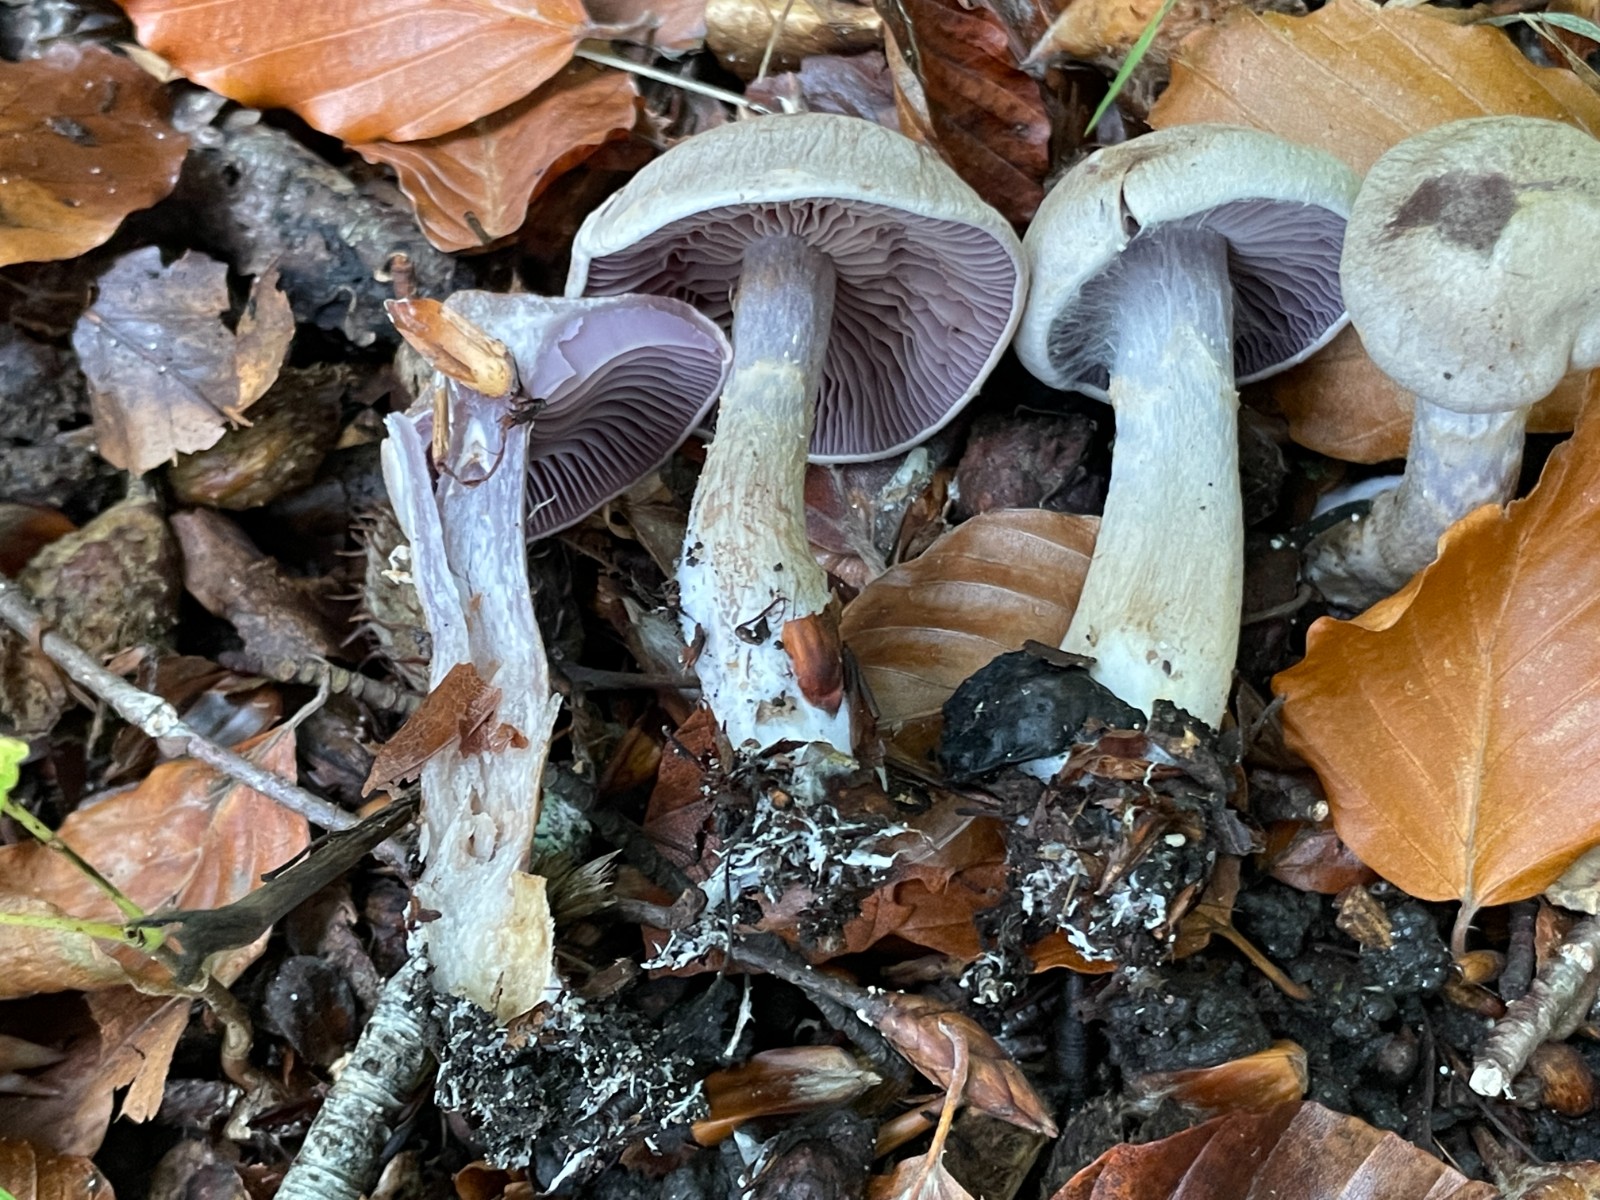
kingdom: Fungi
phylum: Basidiomycota
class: Agaricomycetes
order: Agaricales
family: Cortinariaceae
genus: Cortinarius
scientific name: Cortinarius
